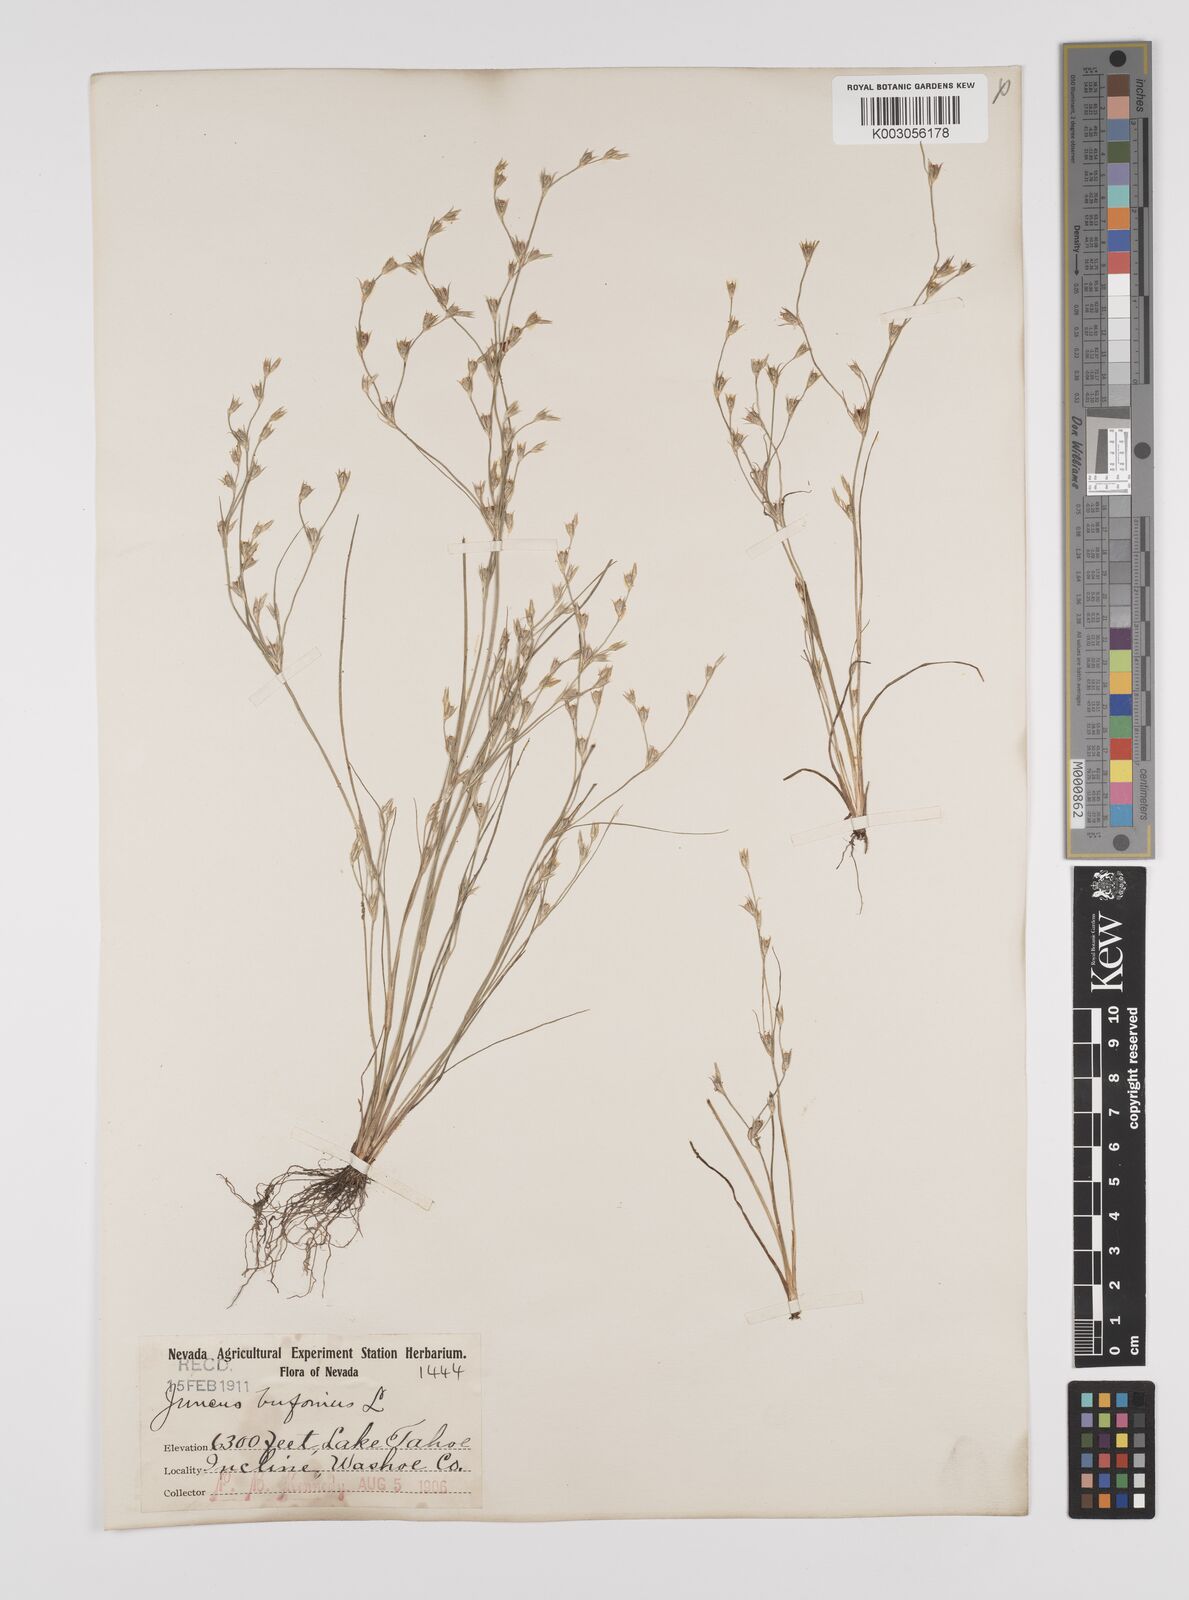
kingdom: Plantae
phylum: Tracheophyta
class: Liliopsida
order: Poales
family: Juncaceae
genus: Juncus
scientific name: Juncus bufonius
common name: Toad rush
